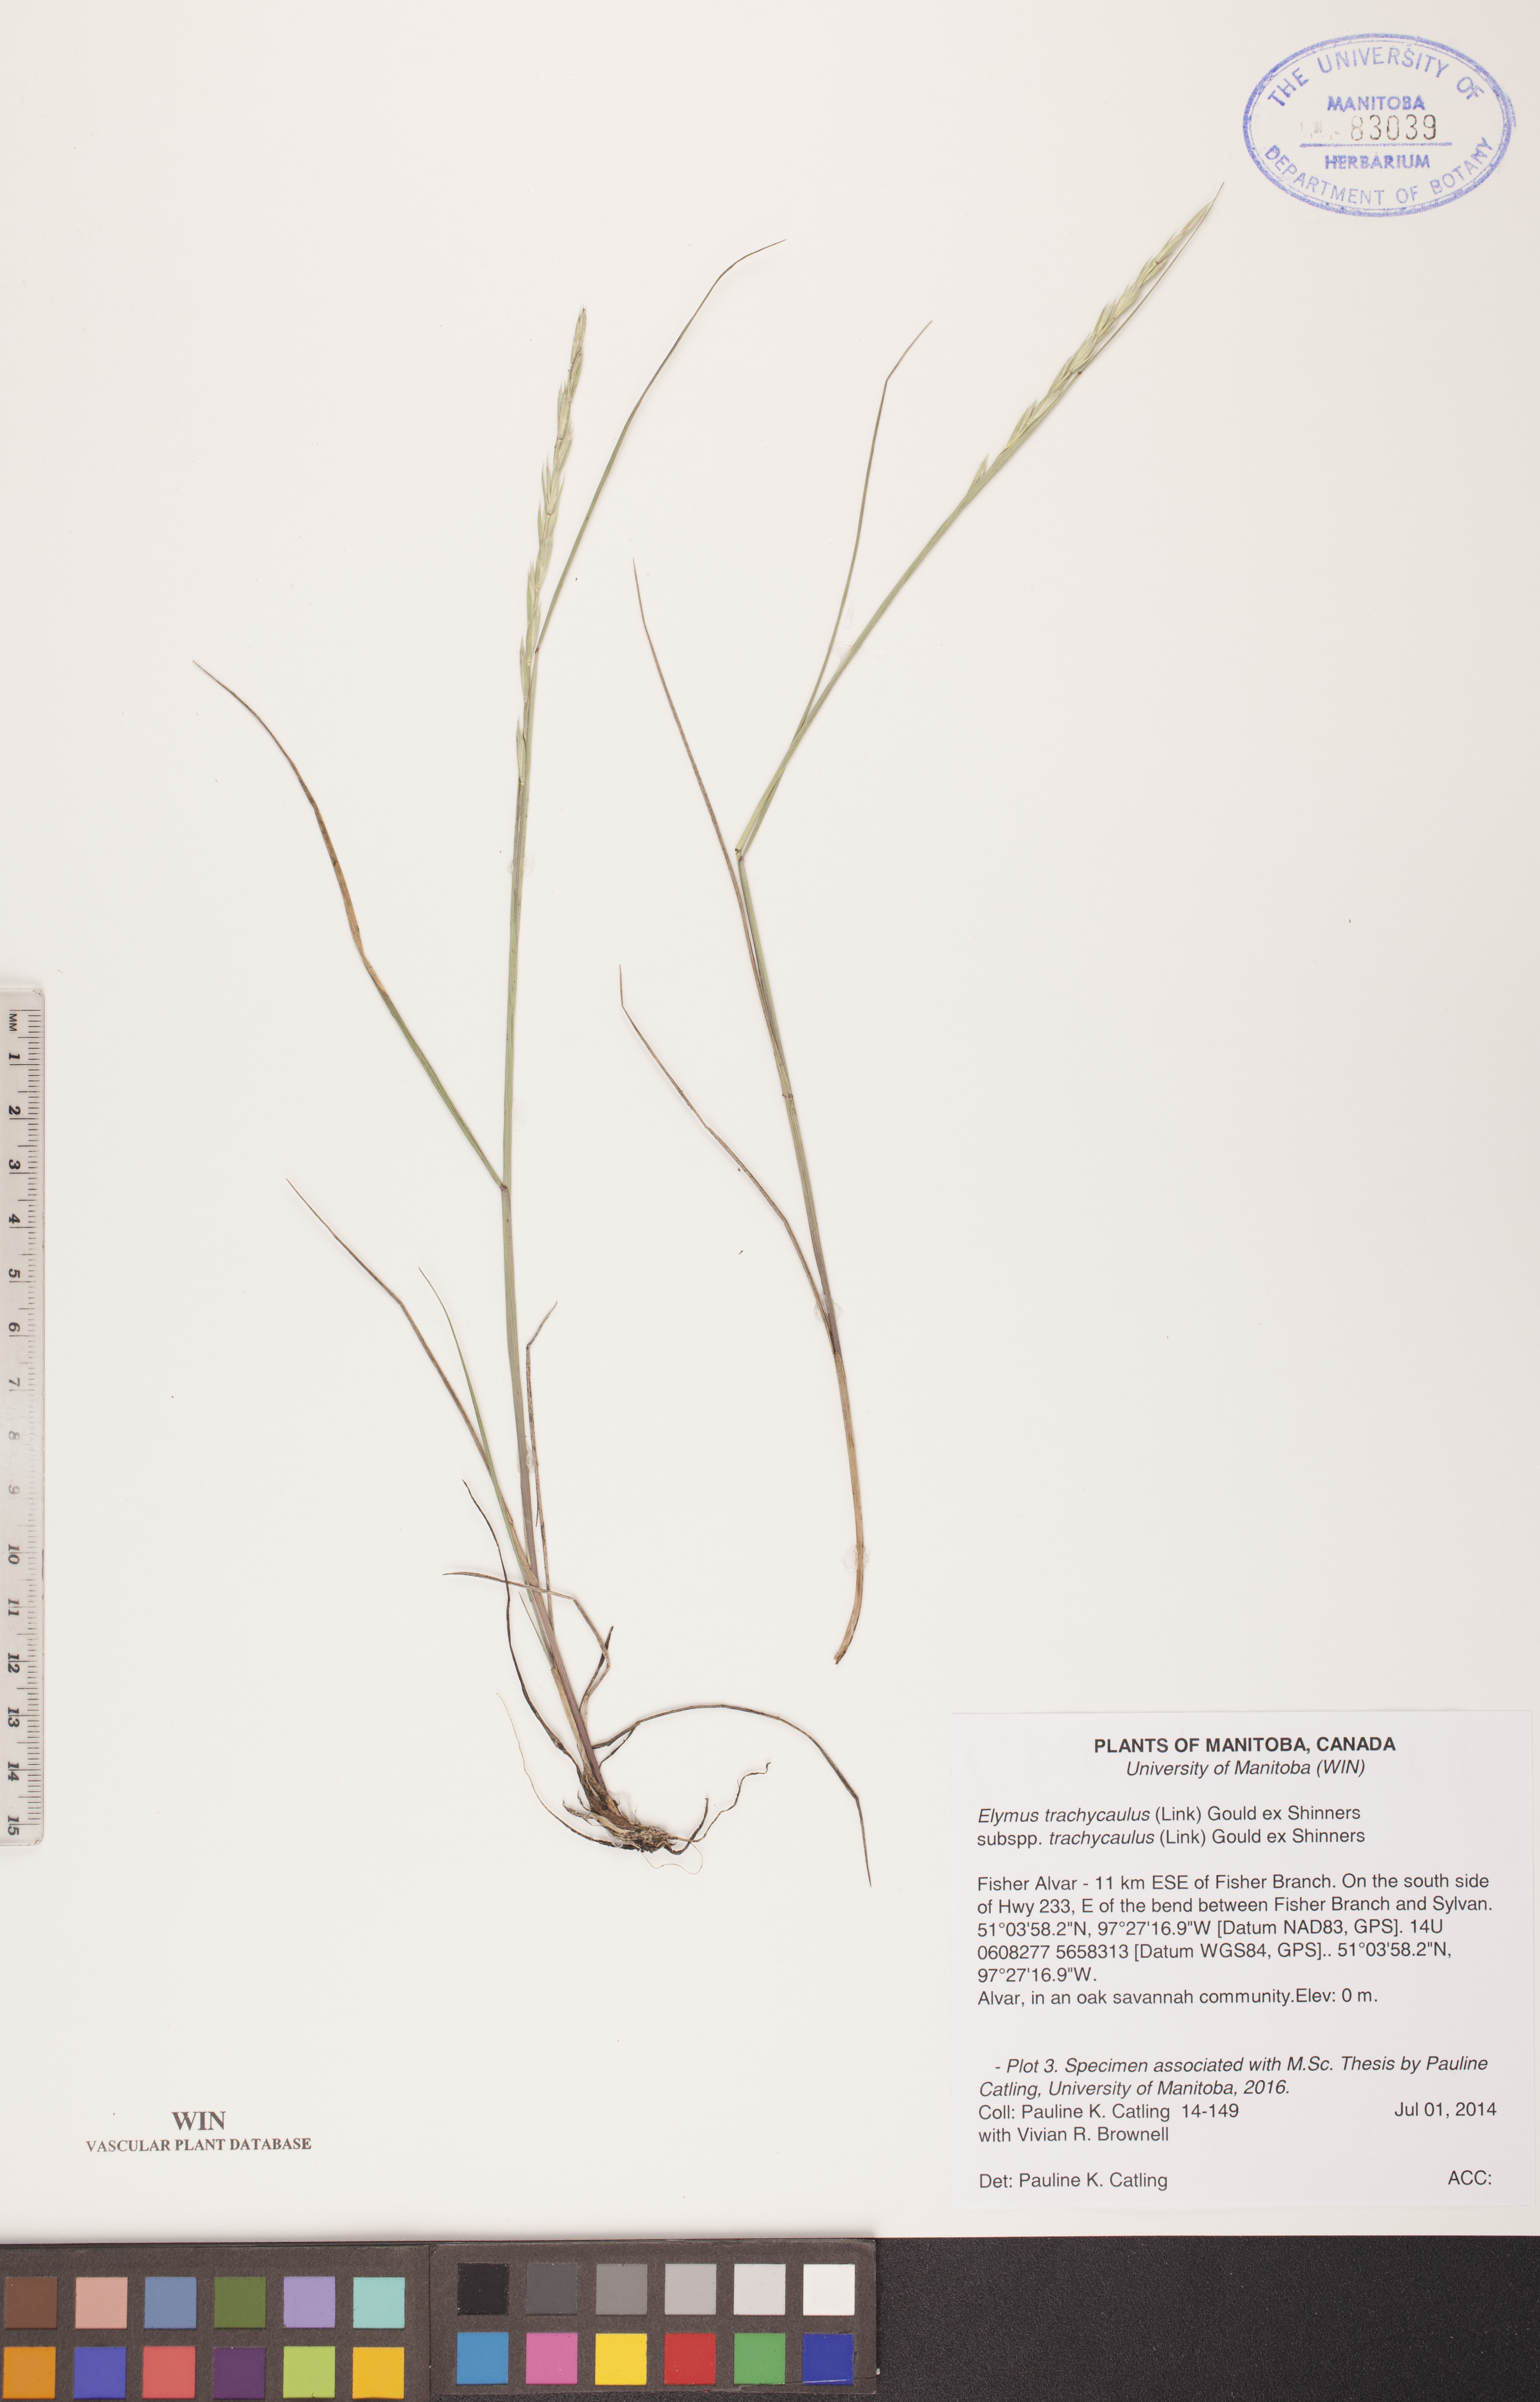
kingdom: Plantae
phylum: Tracheophyta
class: Liliopsida
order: Poales
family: Poaceae
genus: Elymus
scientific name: Elymus violaceus
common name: Arctic wheatgrass
